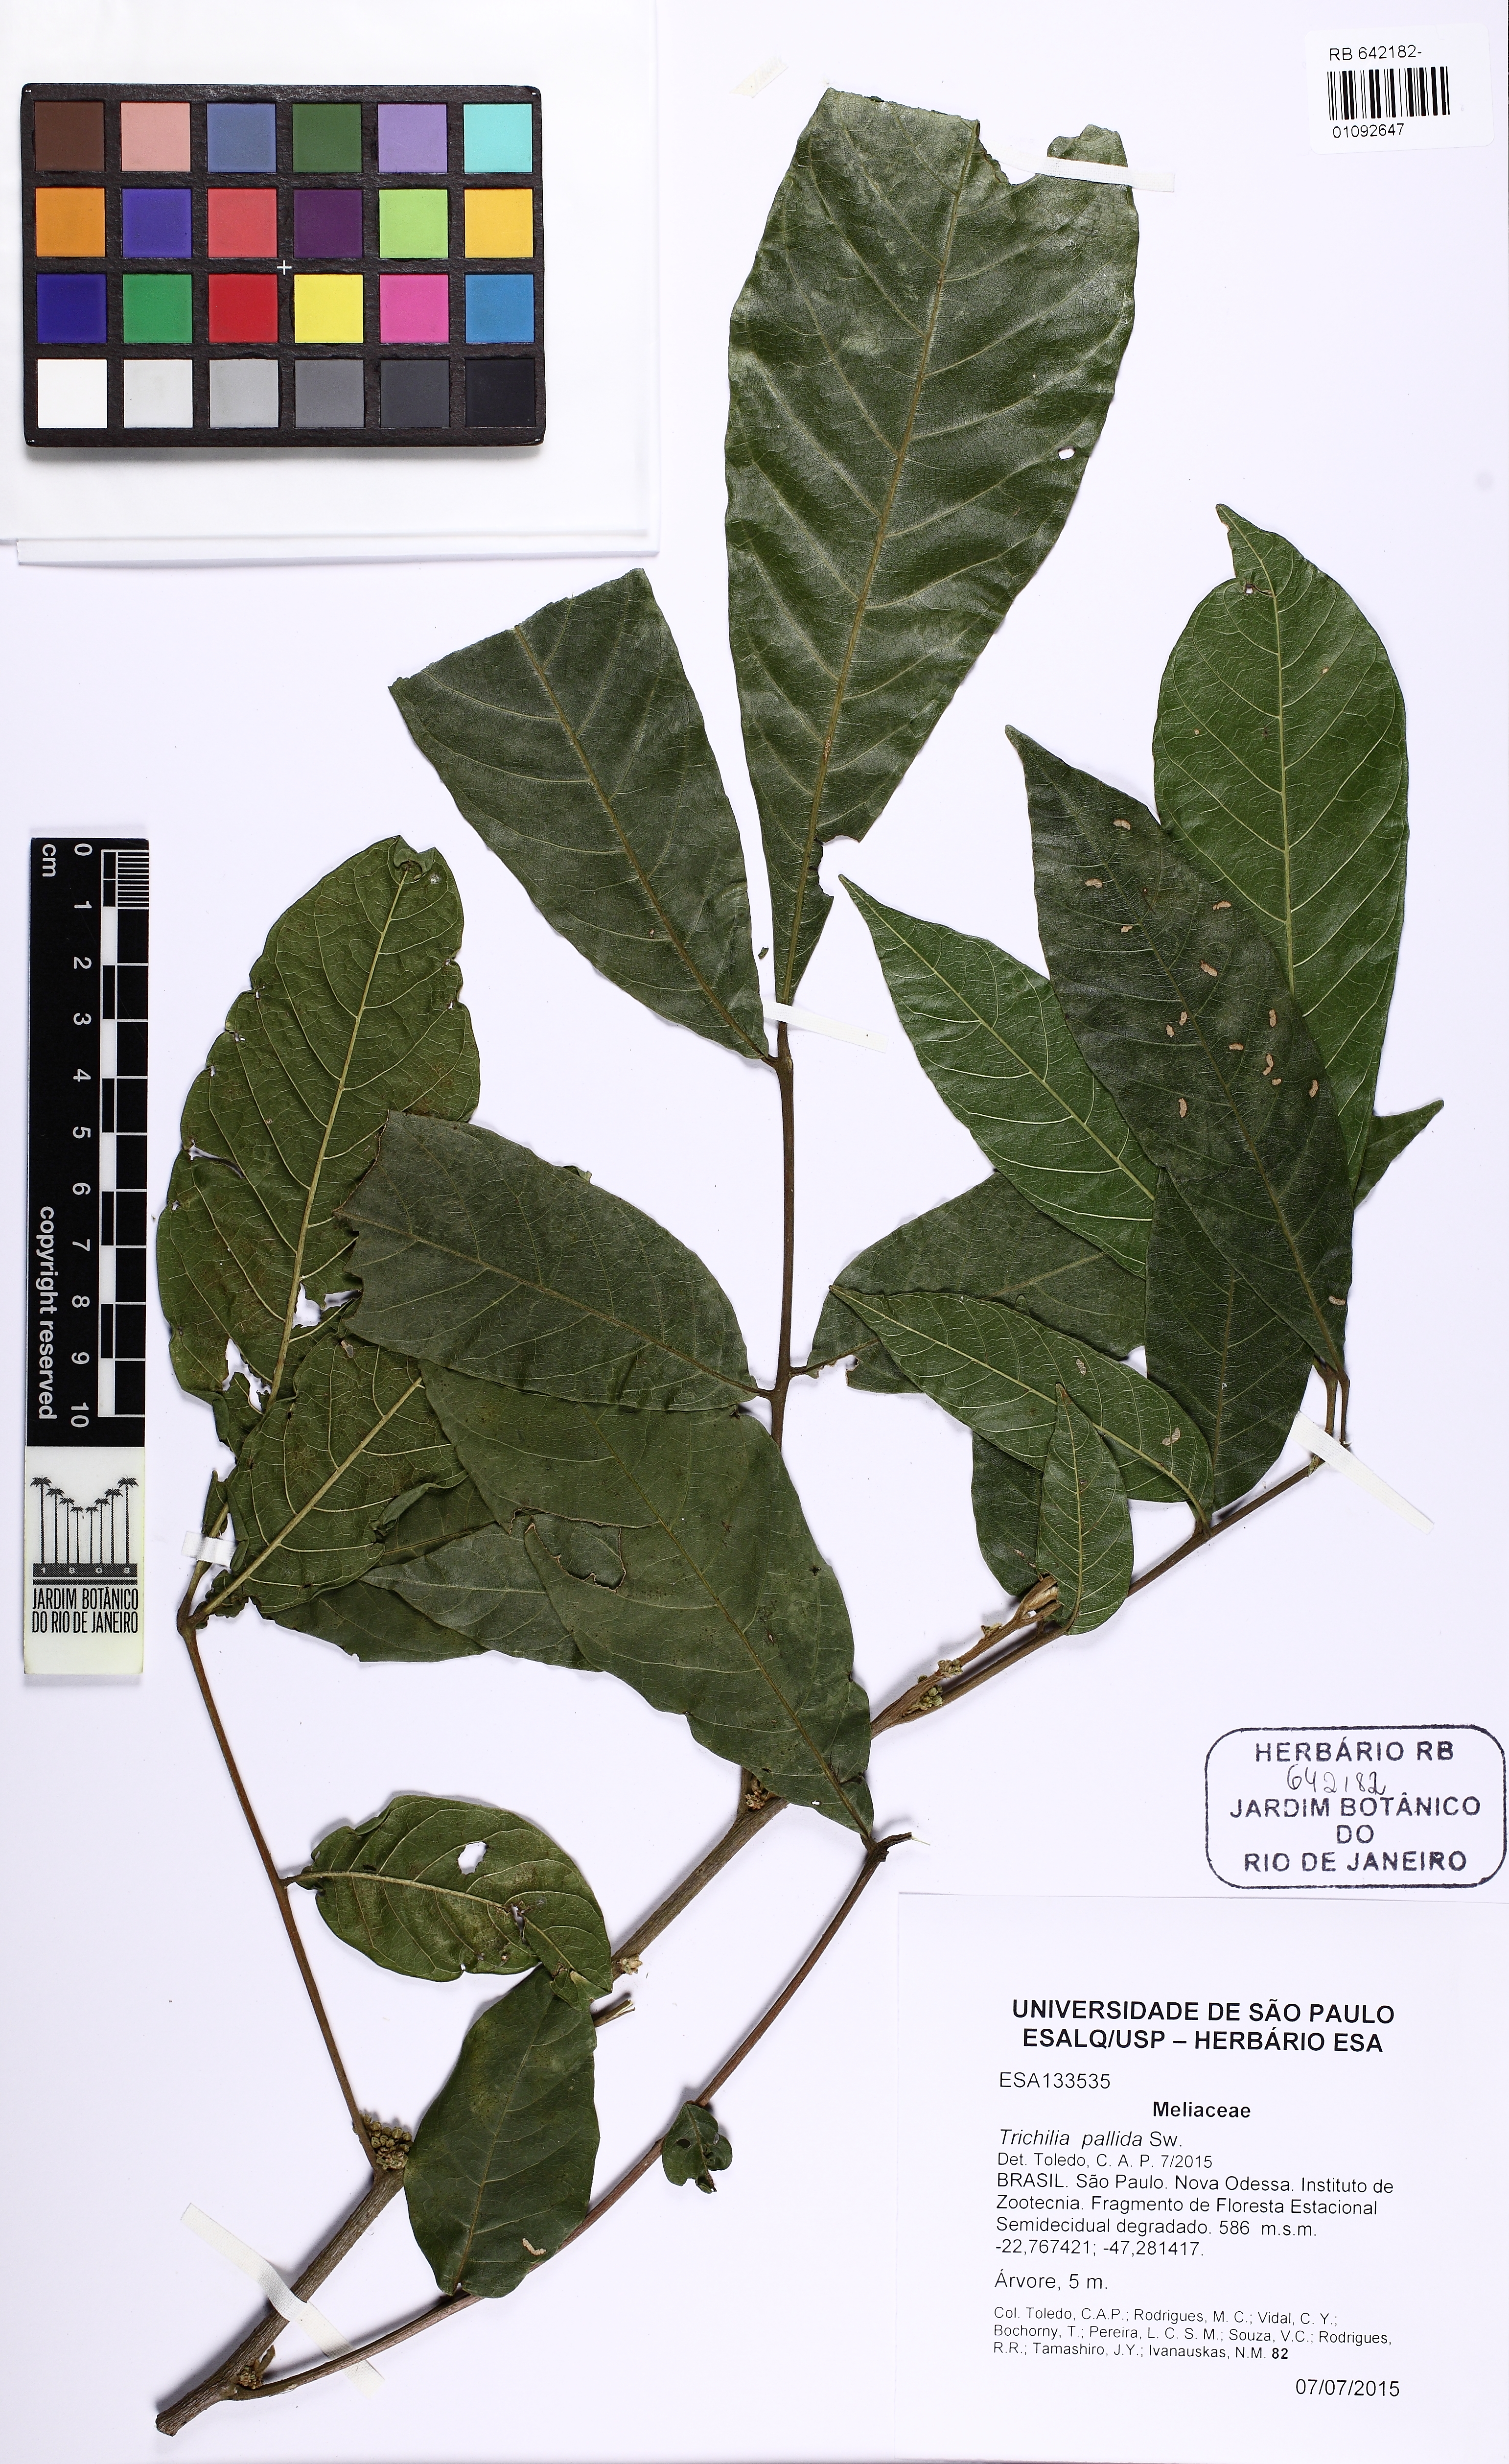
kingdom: Plantae
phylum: Tracheophyta
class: Magnoliopsida
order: Sapindales
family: Meliaceae
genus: Trichilia
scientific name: Trichilia pallida
